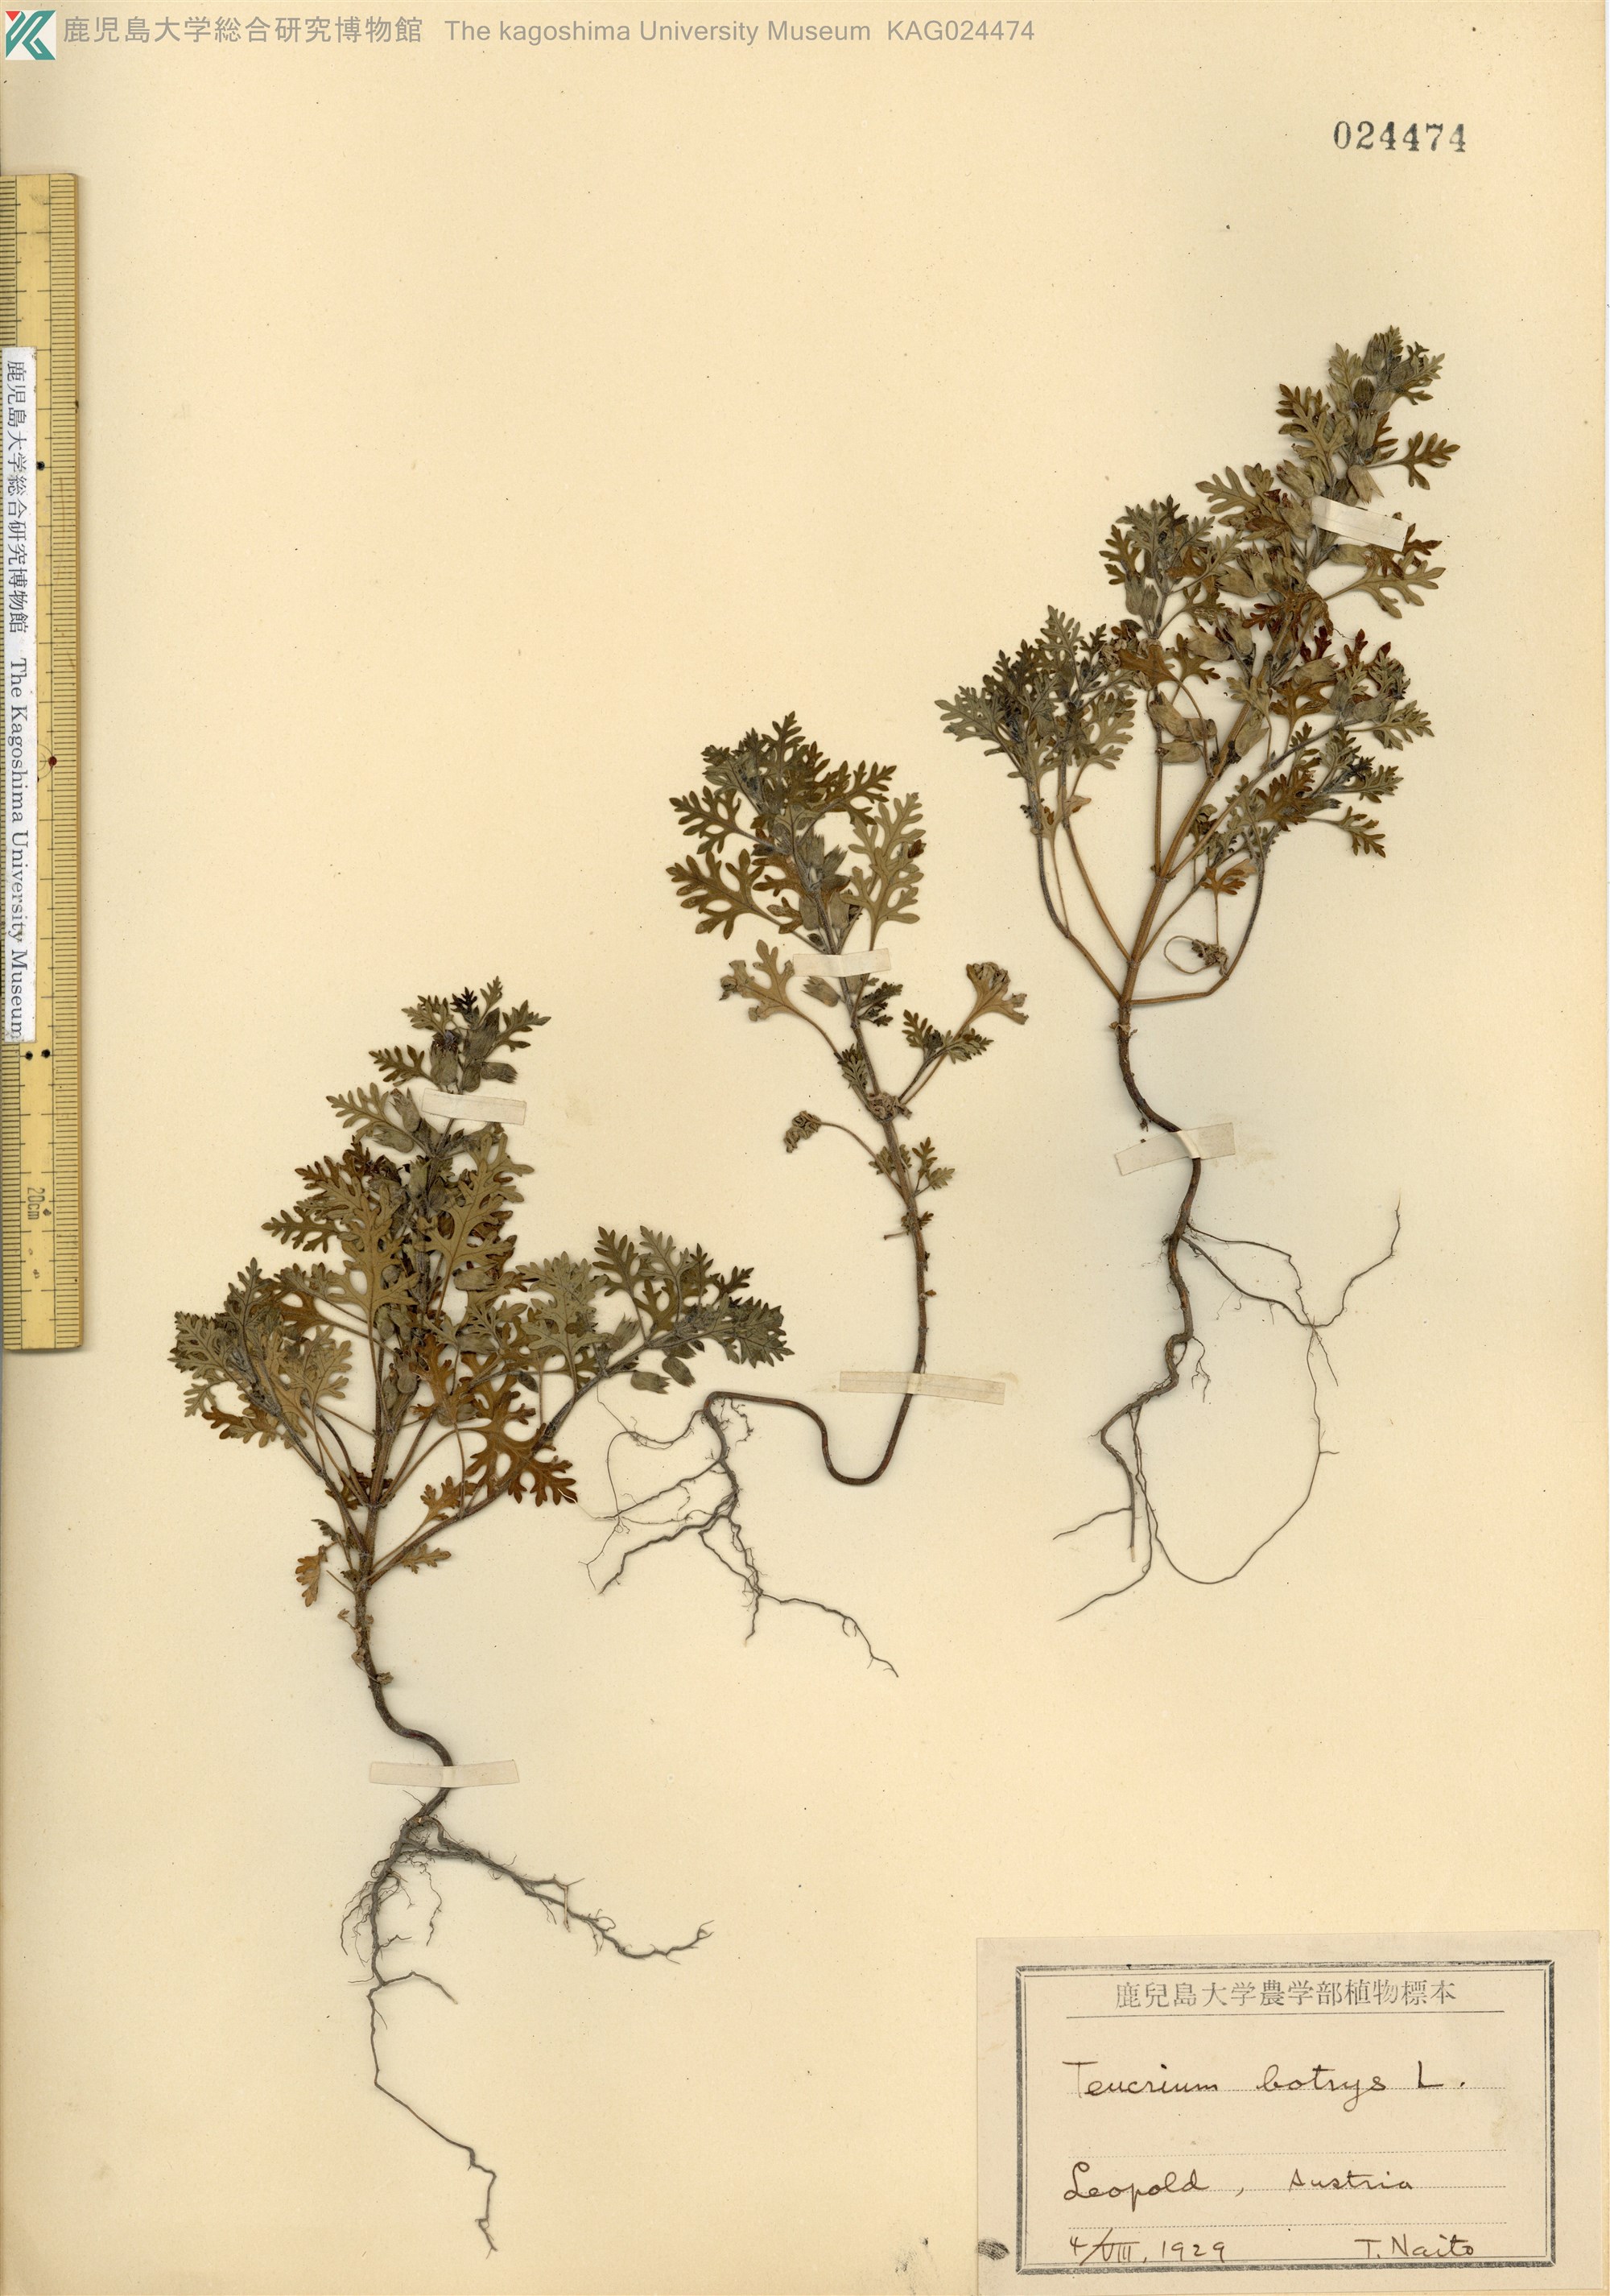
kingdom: Plantae
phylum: Tracheophyta
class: Magnoliopsida
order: Lamiales
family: Lamiaceae
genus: Teucrium
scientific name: Teucrium botrys
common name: Cut-leaved germander
